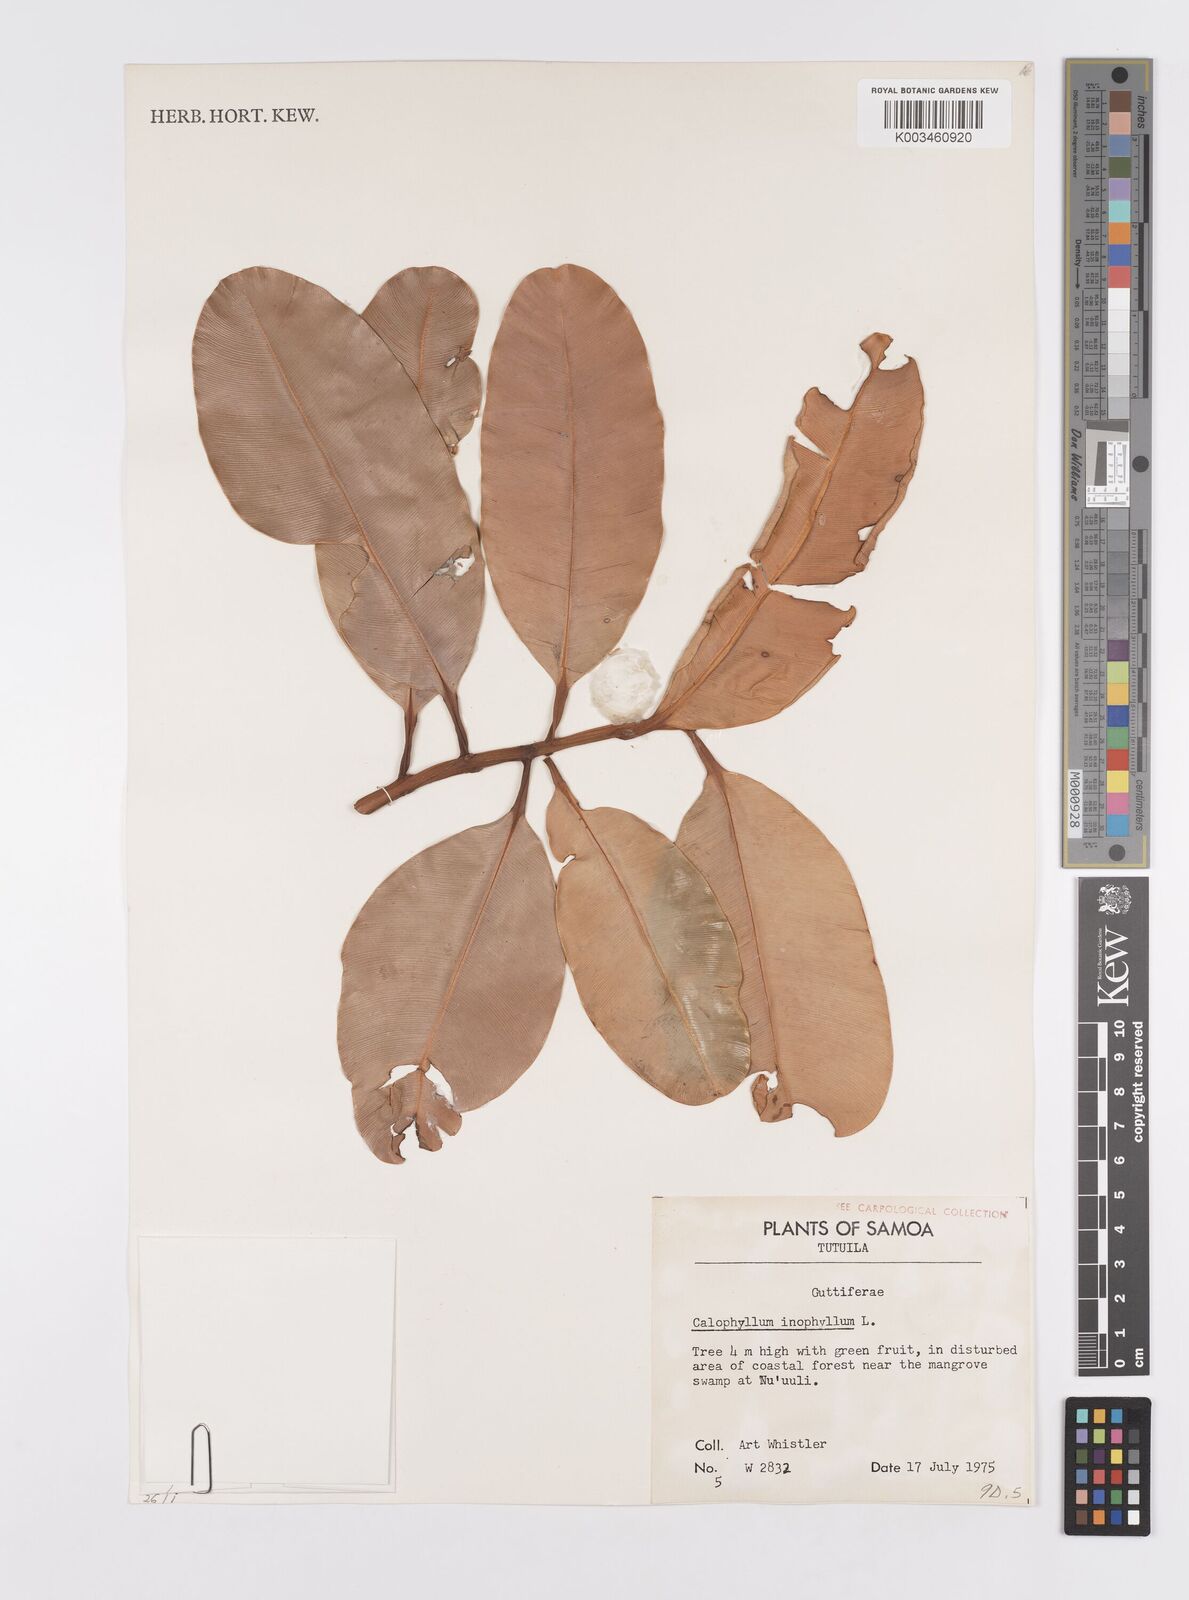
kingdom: Plantae
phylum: Tracheophyta
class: Magnoliopsida
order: Malpighiales
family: Calophyllaceae
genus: Calophyllum
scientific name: Calophyllum inophyllum
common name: Alexandrian laurel
